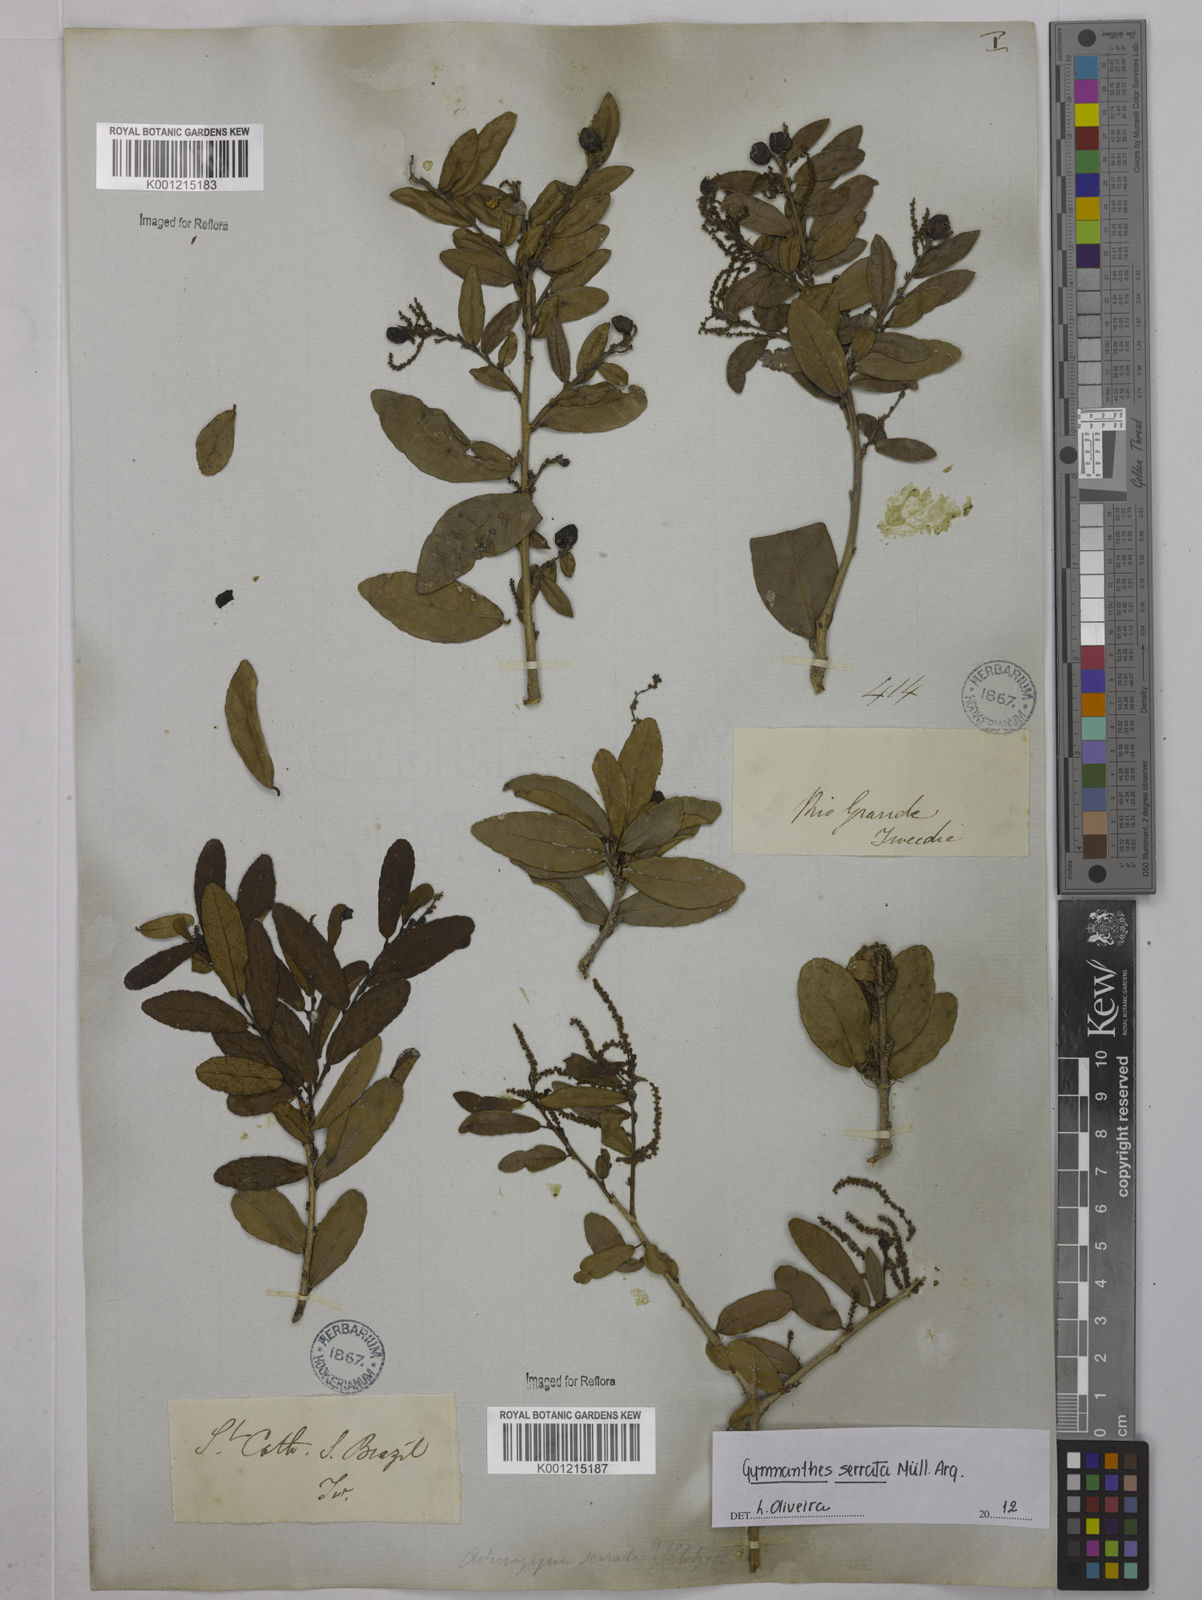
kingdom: Plantae
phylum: Tracheophyta
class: Magnoliopsida
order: Malpighiales
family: Euphorbiaceae
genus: Gymnanthes
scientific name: Gymnanthes
